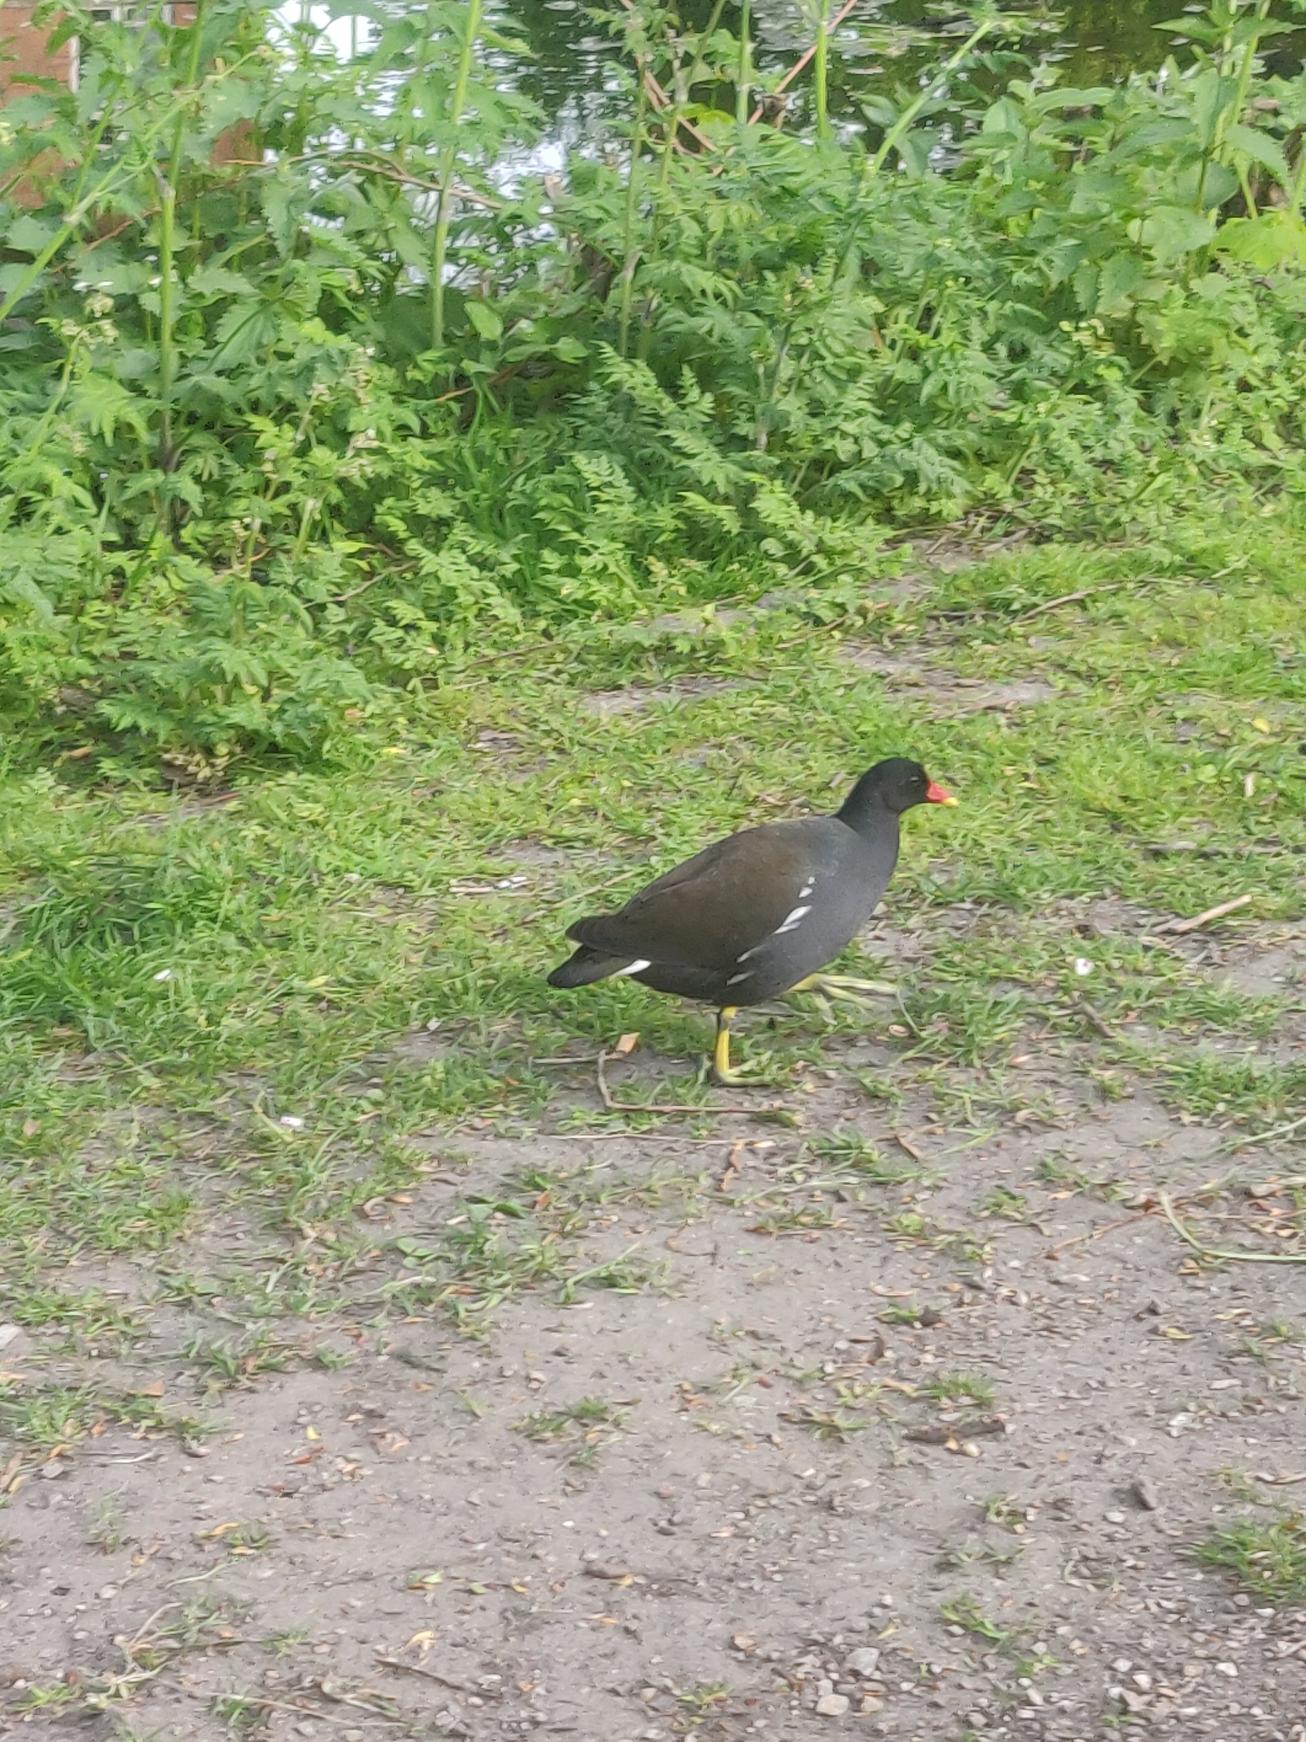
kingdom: Animalia
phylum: Chordata
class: Aves
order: Gruiformes
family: Rallidae
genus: Gallinula
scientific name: Gallinula chloropus
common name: Grønbenet rørhøne
